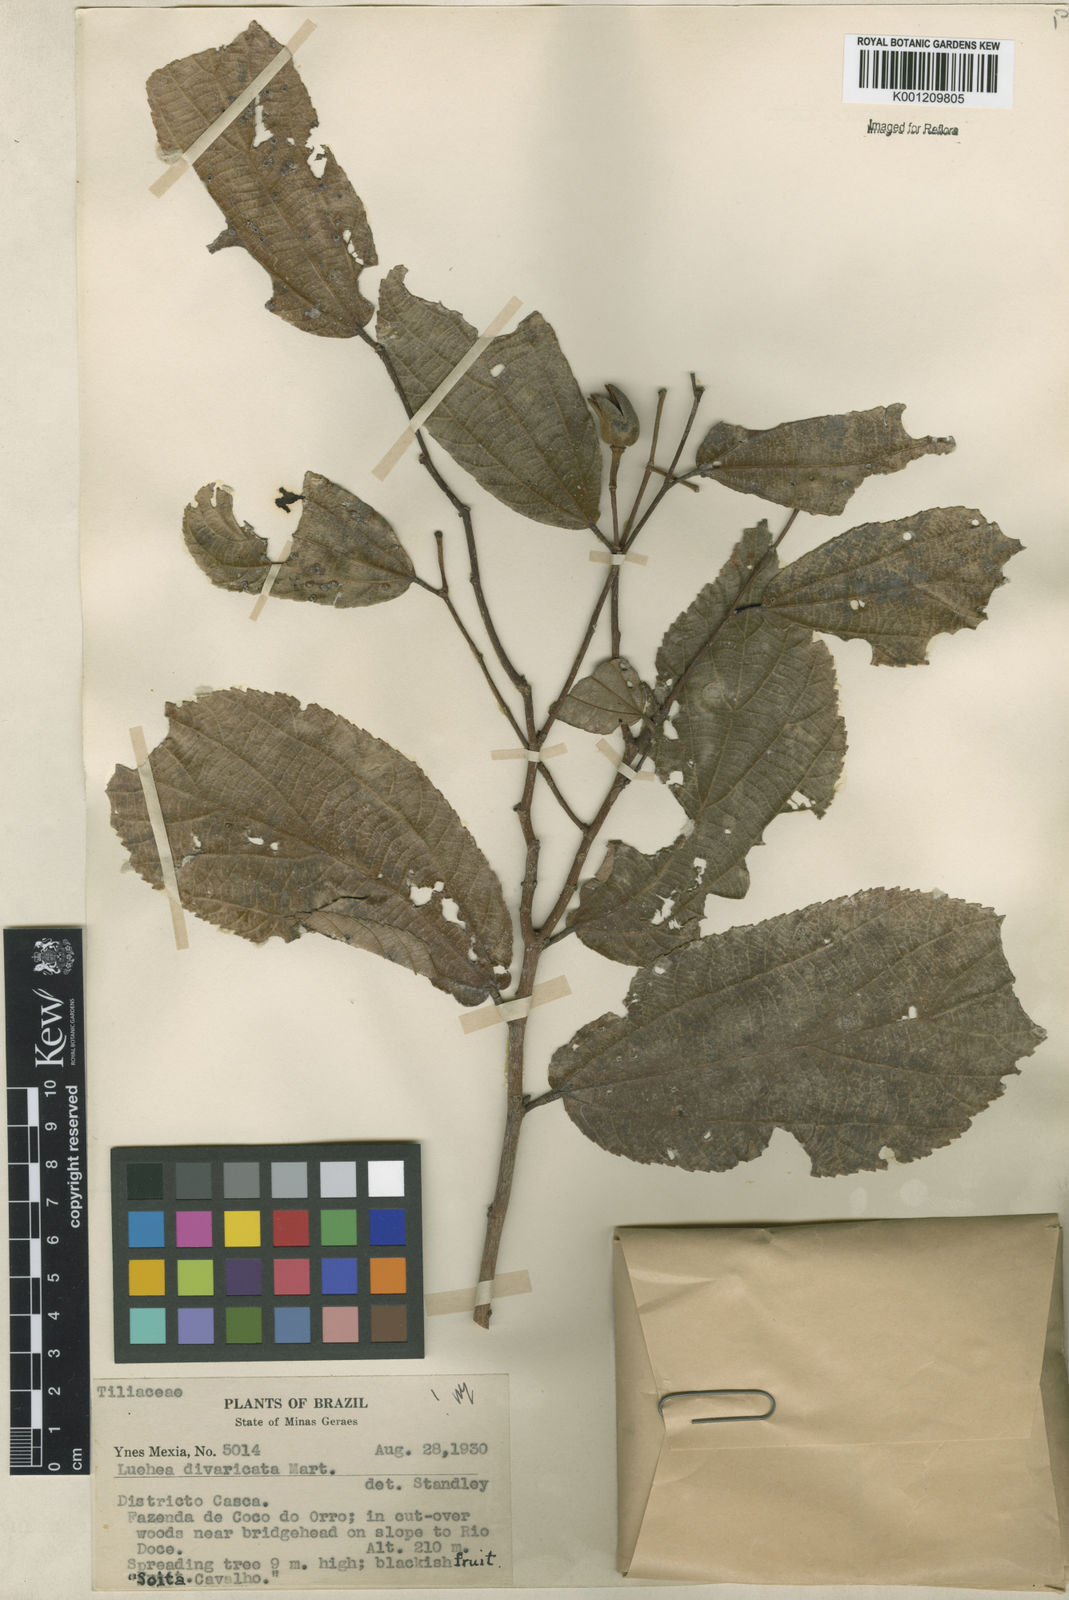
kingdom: Plantae
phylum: Tracheophyta
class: Magnoliopsida
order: Malvales
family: Malvaceae
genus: Luehea
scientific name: Luehea divaricata
